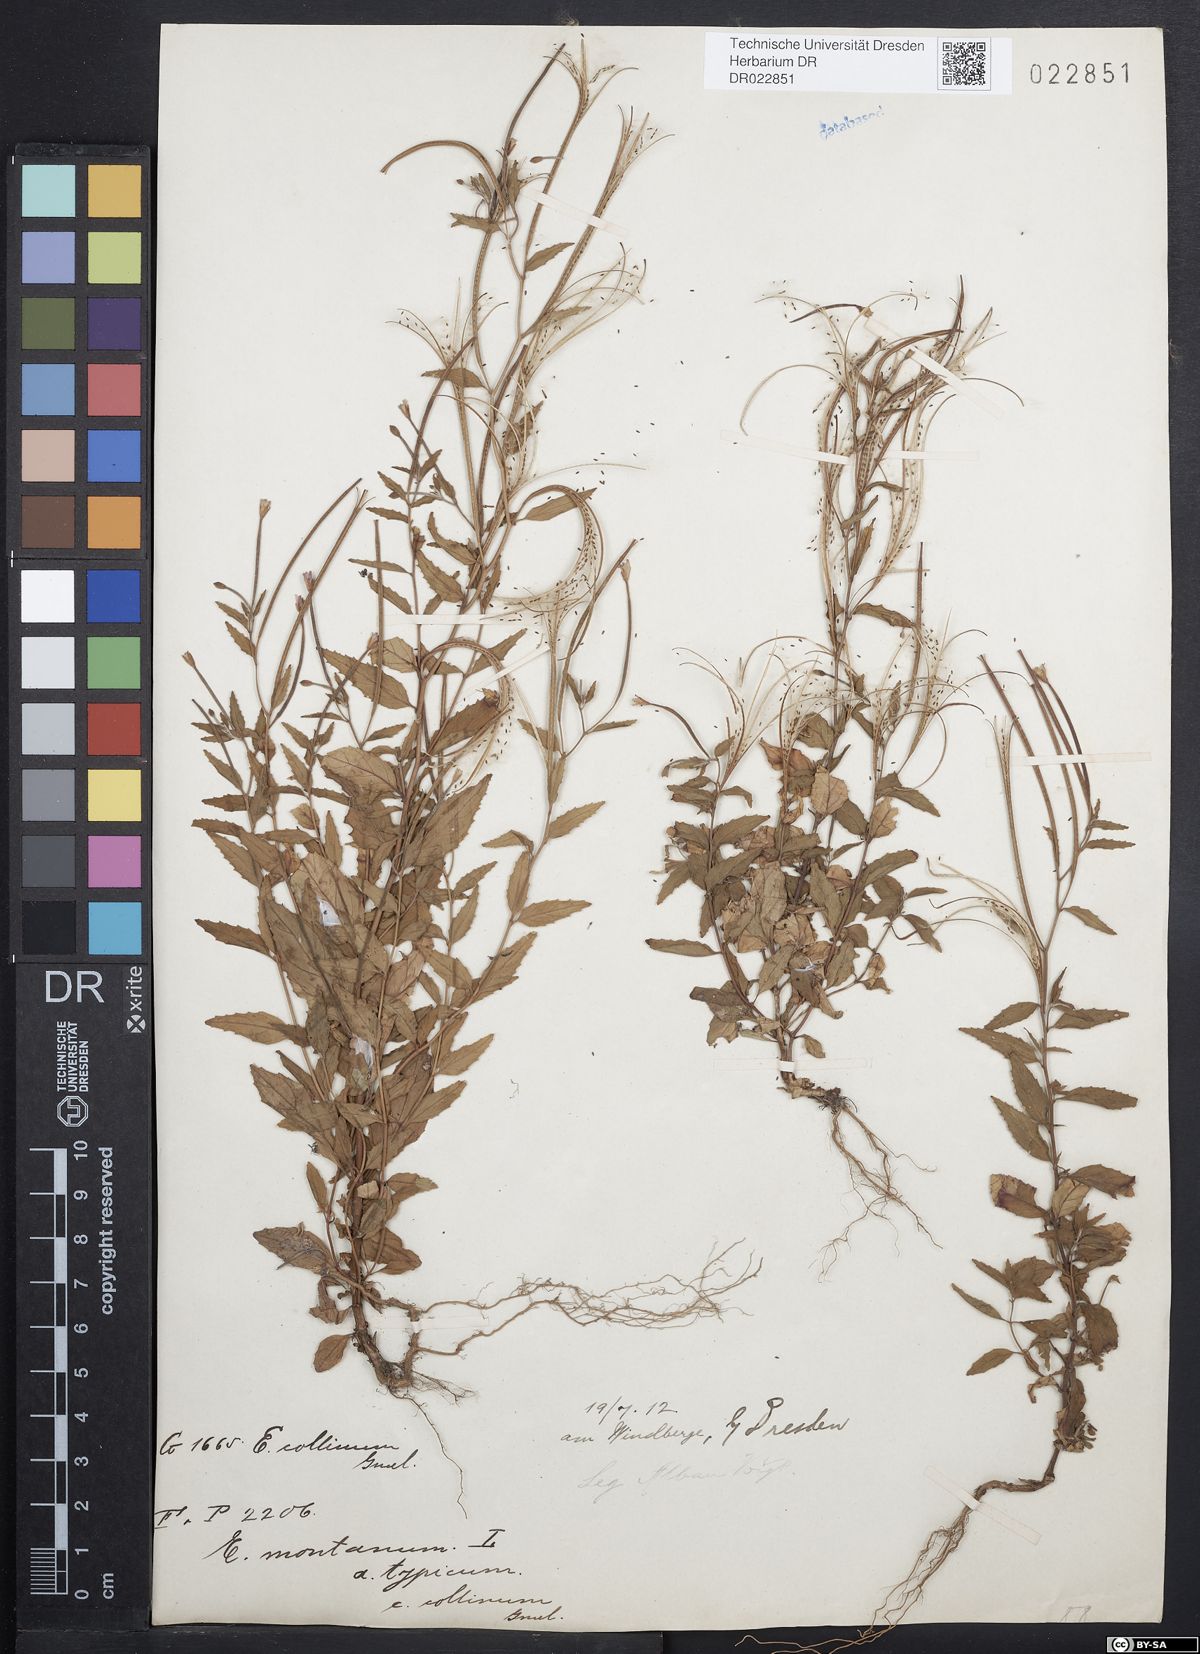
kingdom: Plantae
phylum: Tracheophyta
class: Magnoliopsida
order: Myrtales
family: Onagraceae
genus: Epilobium
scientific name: Epilobium collinum
